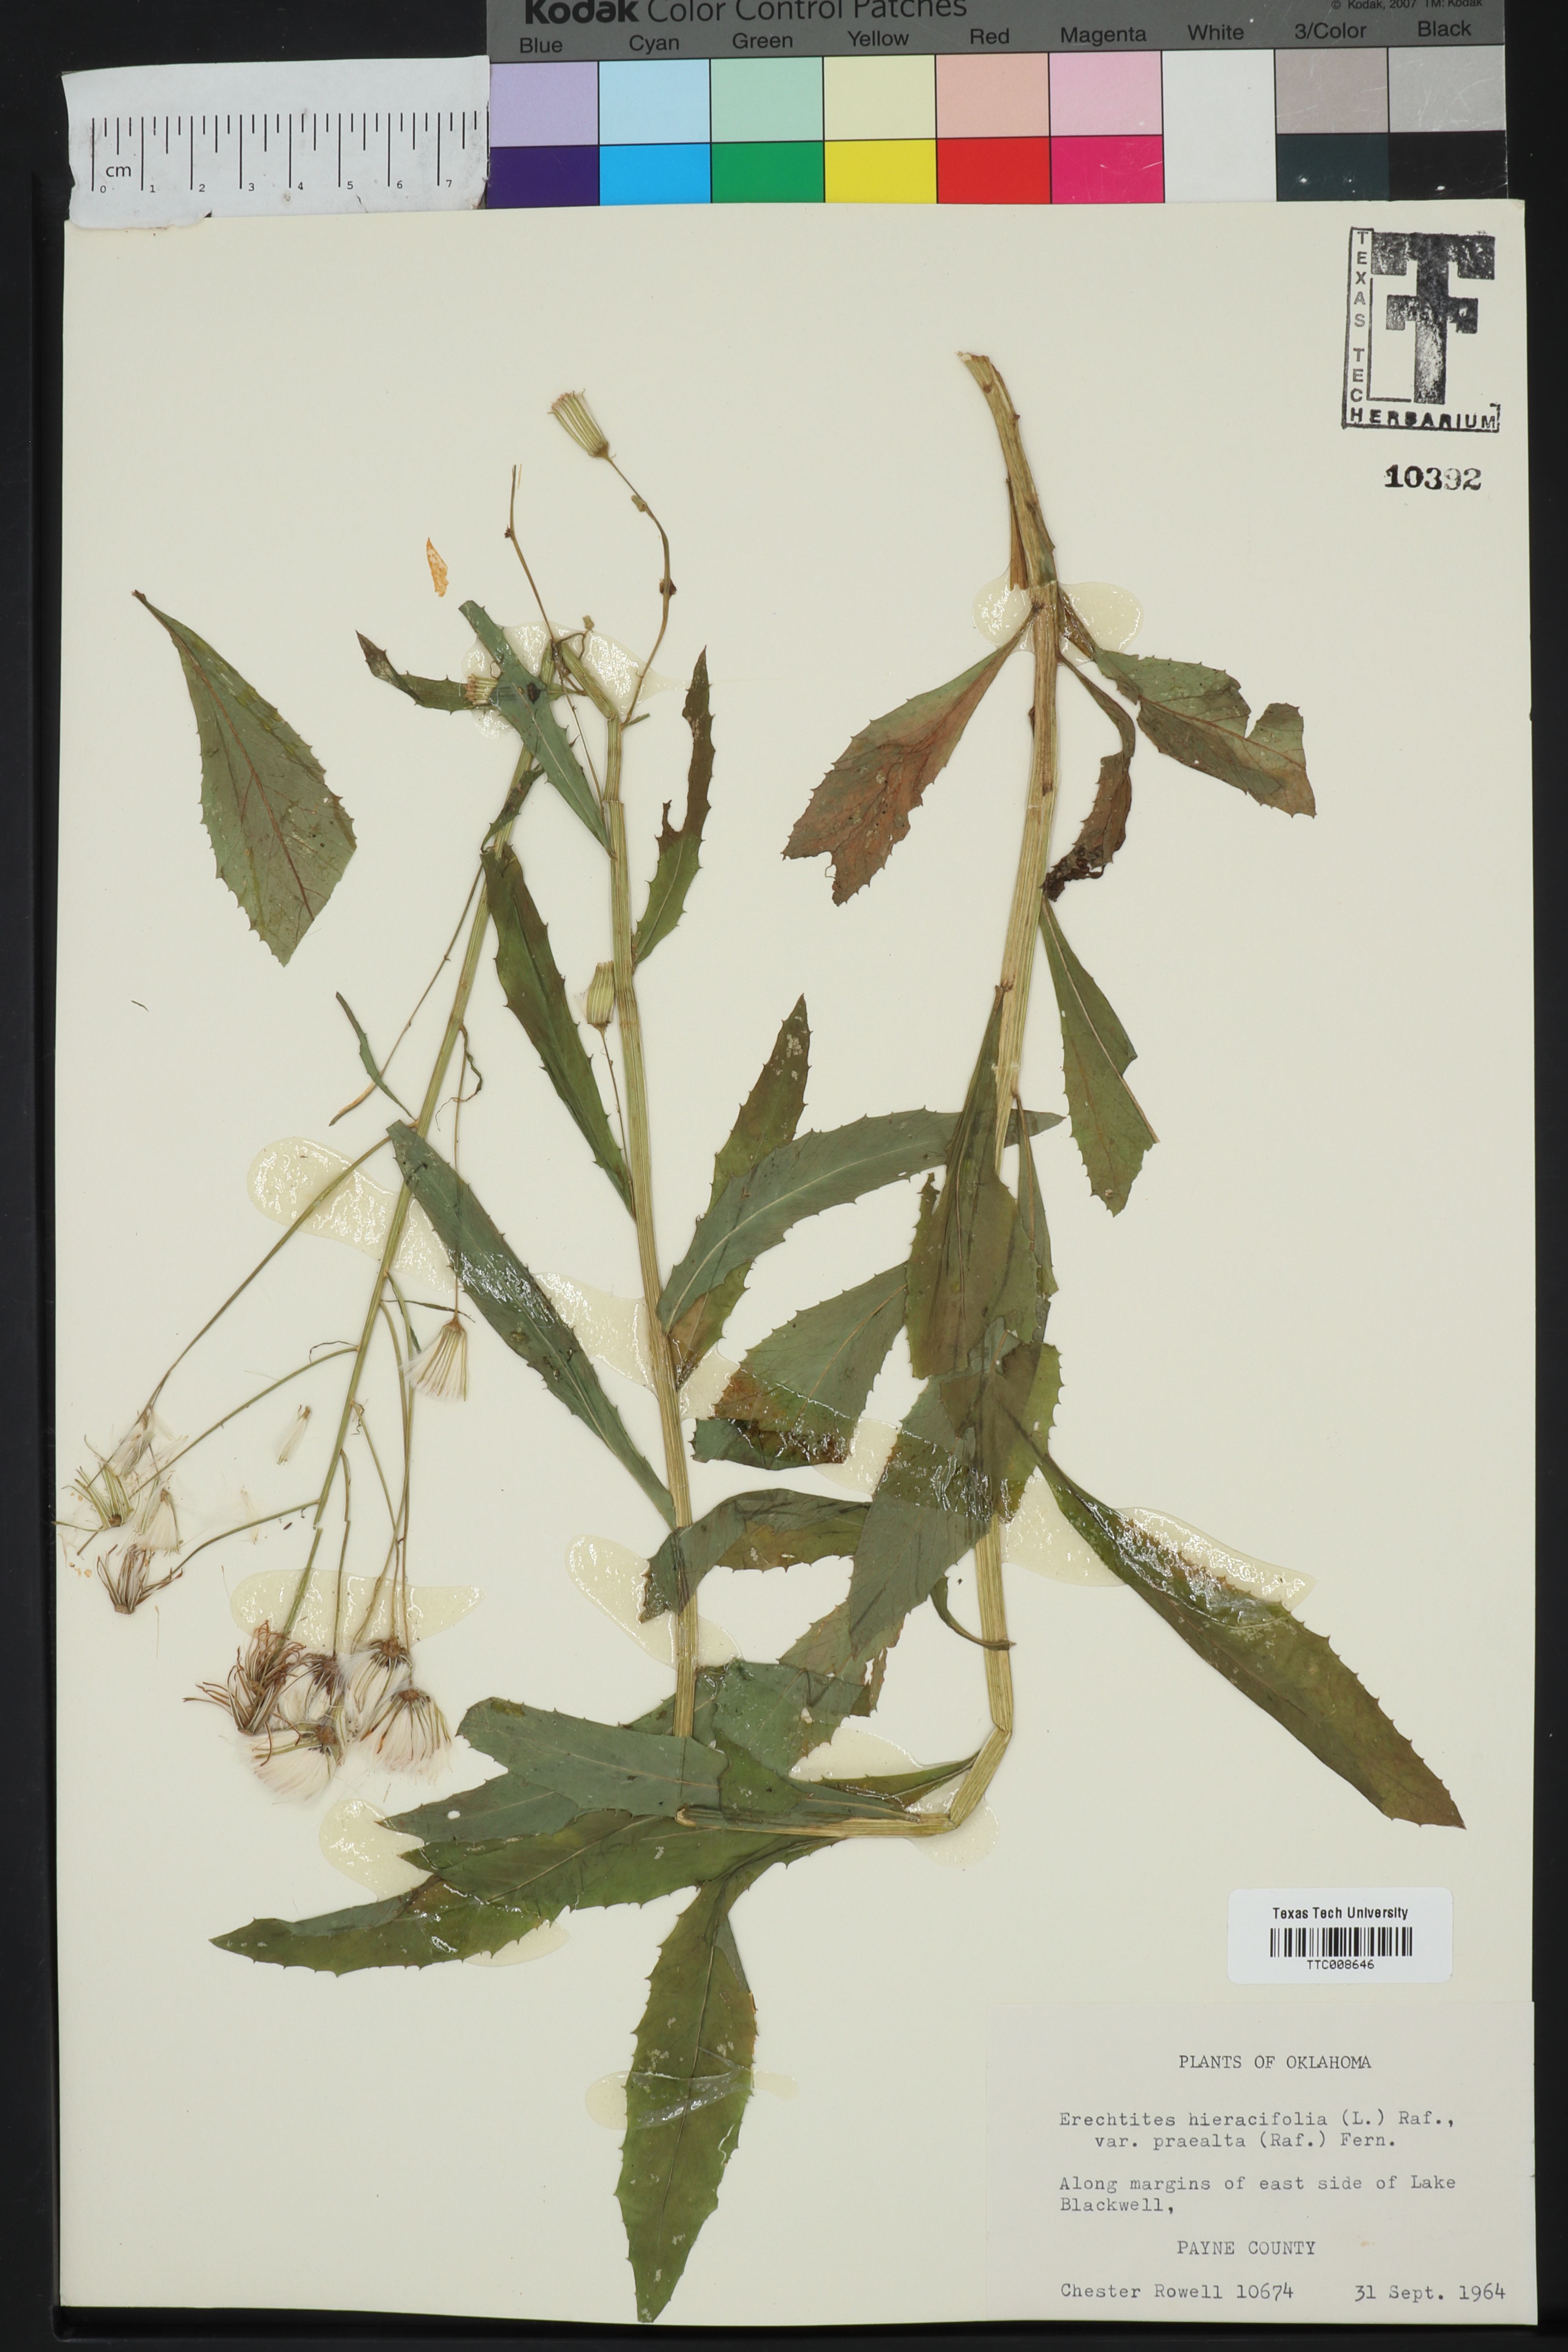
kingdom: Plantae
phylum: Tracheophyta
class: Magnoliopsida
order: Asterales
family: Asteraceae
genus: Erechtites
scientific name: Erechtites hieraciifolius
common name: American burnweed
